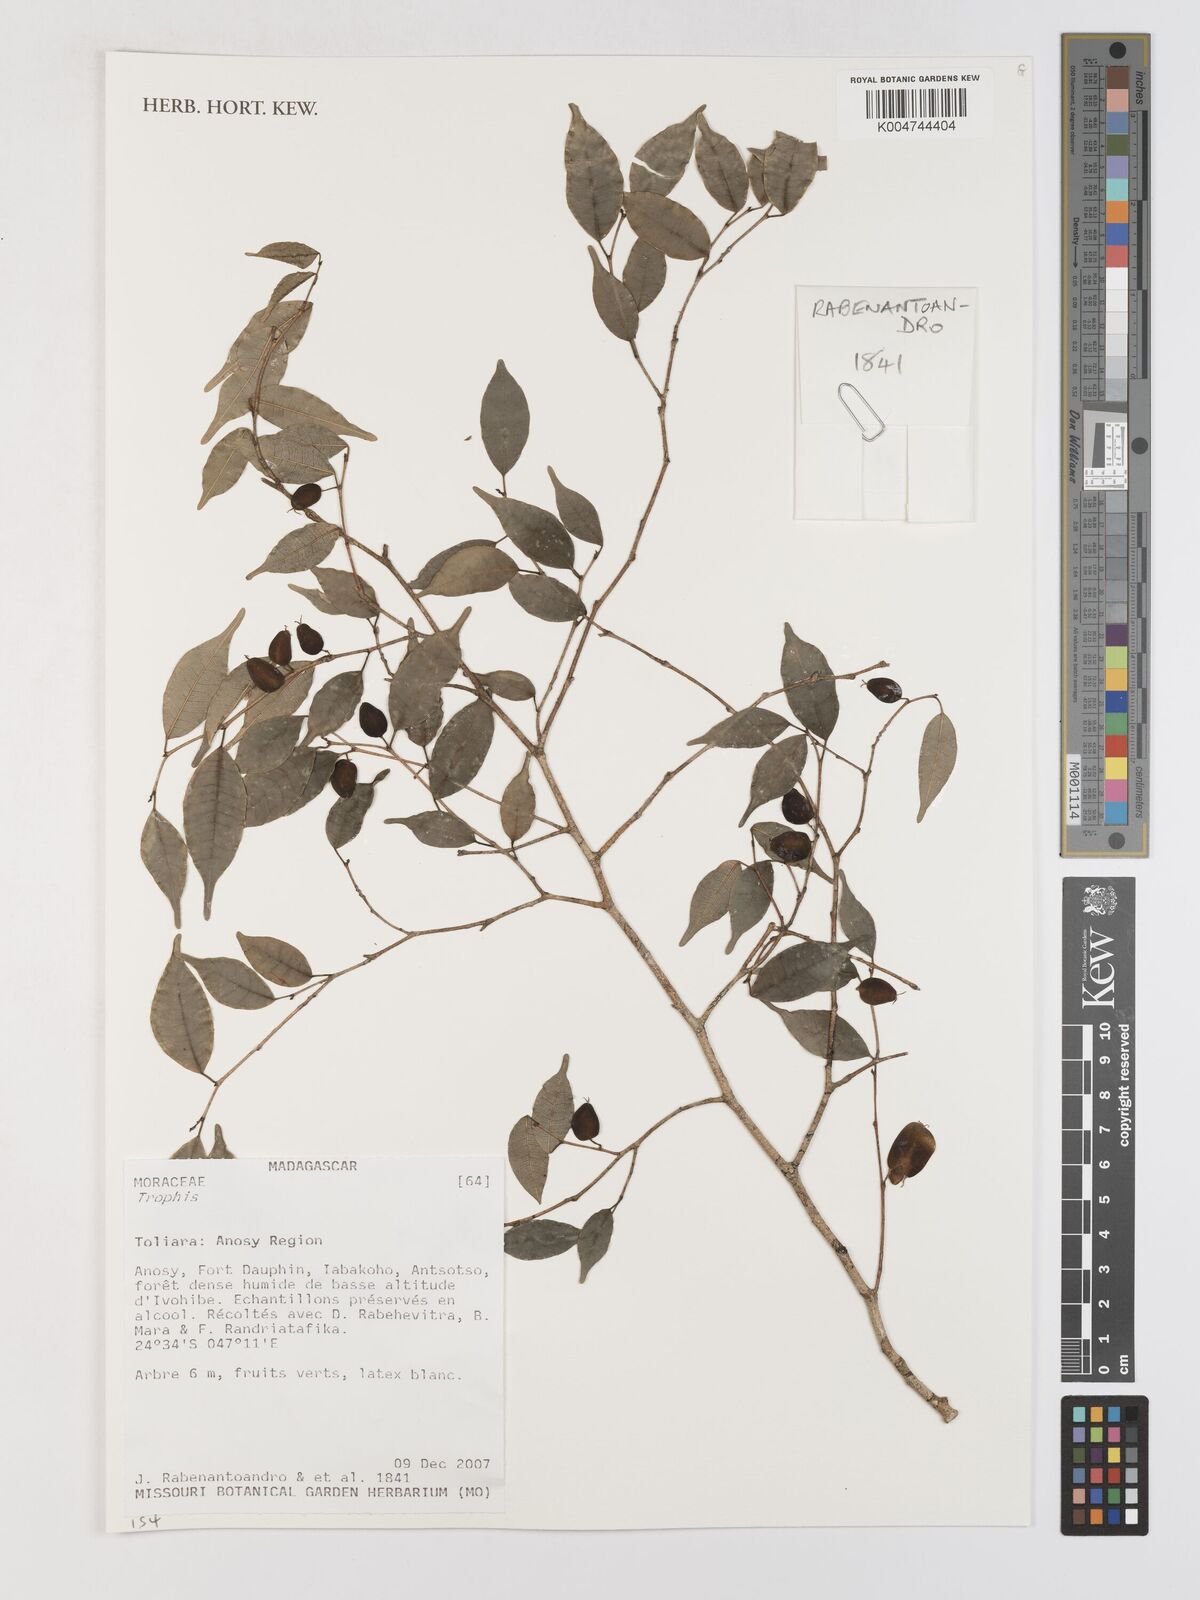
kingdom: Plantae
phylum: Tracheophyta
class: Magnoliopsida
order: Rosales
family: Moraceae
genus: Trophis
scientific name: Trophis
